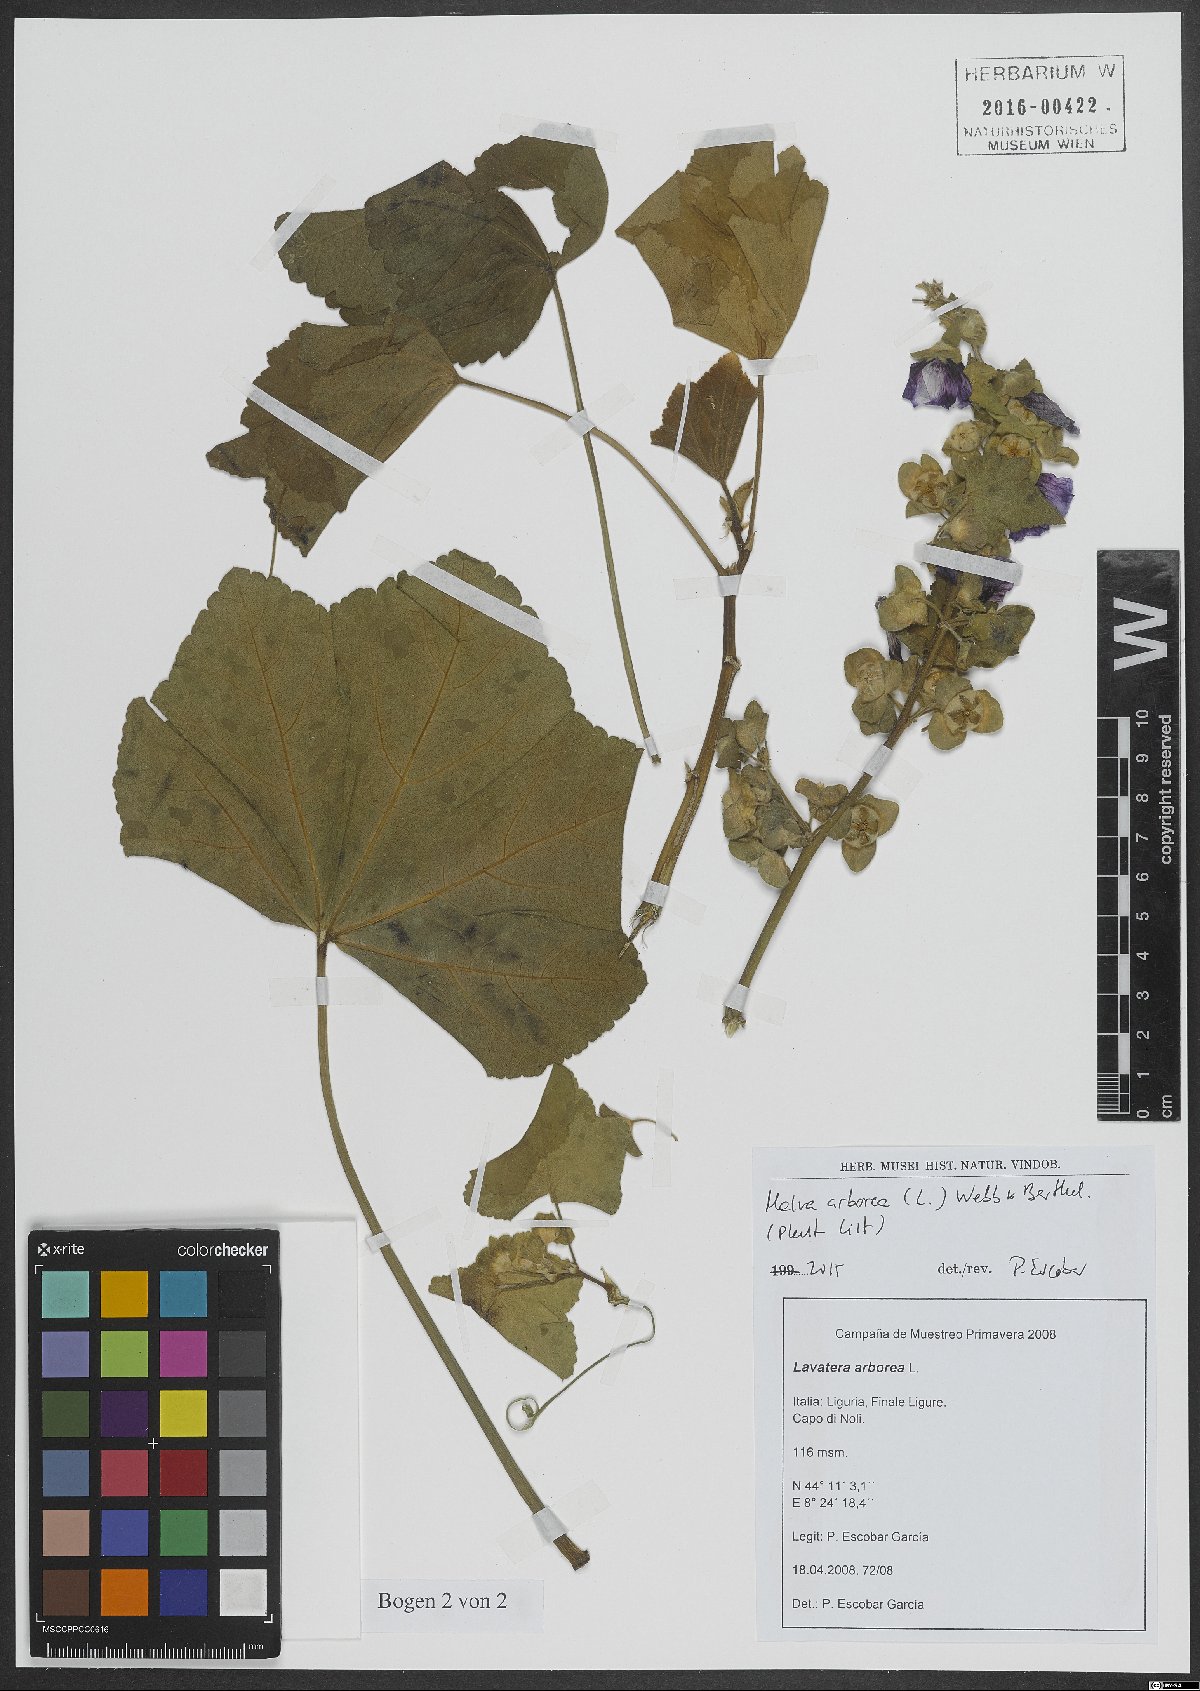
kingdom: Plantae
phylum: Tracheophyta
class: Magnoliopsida
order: Malvales
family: Malvaceae
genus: Malva
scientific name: Malva arborea
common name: Tree mallow
